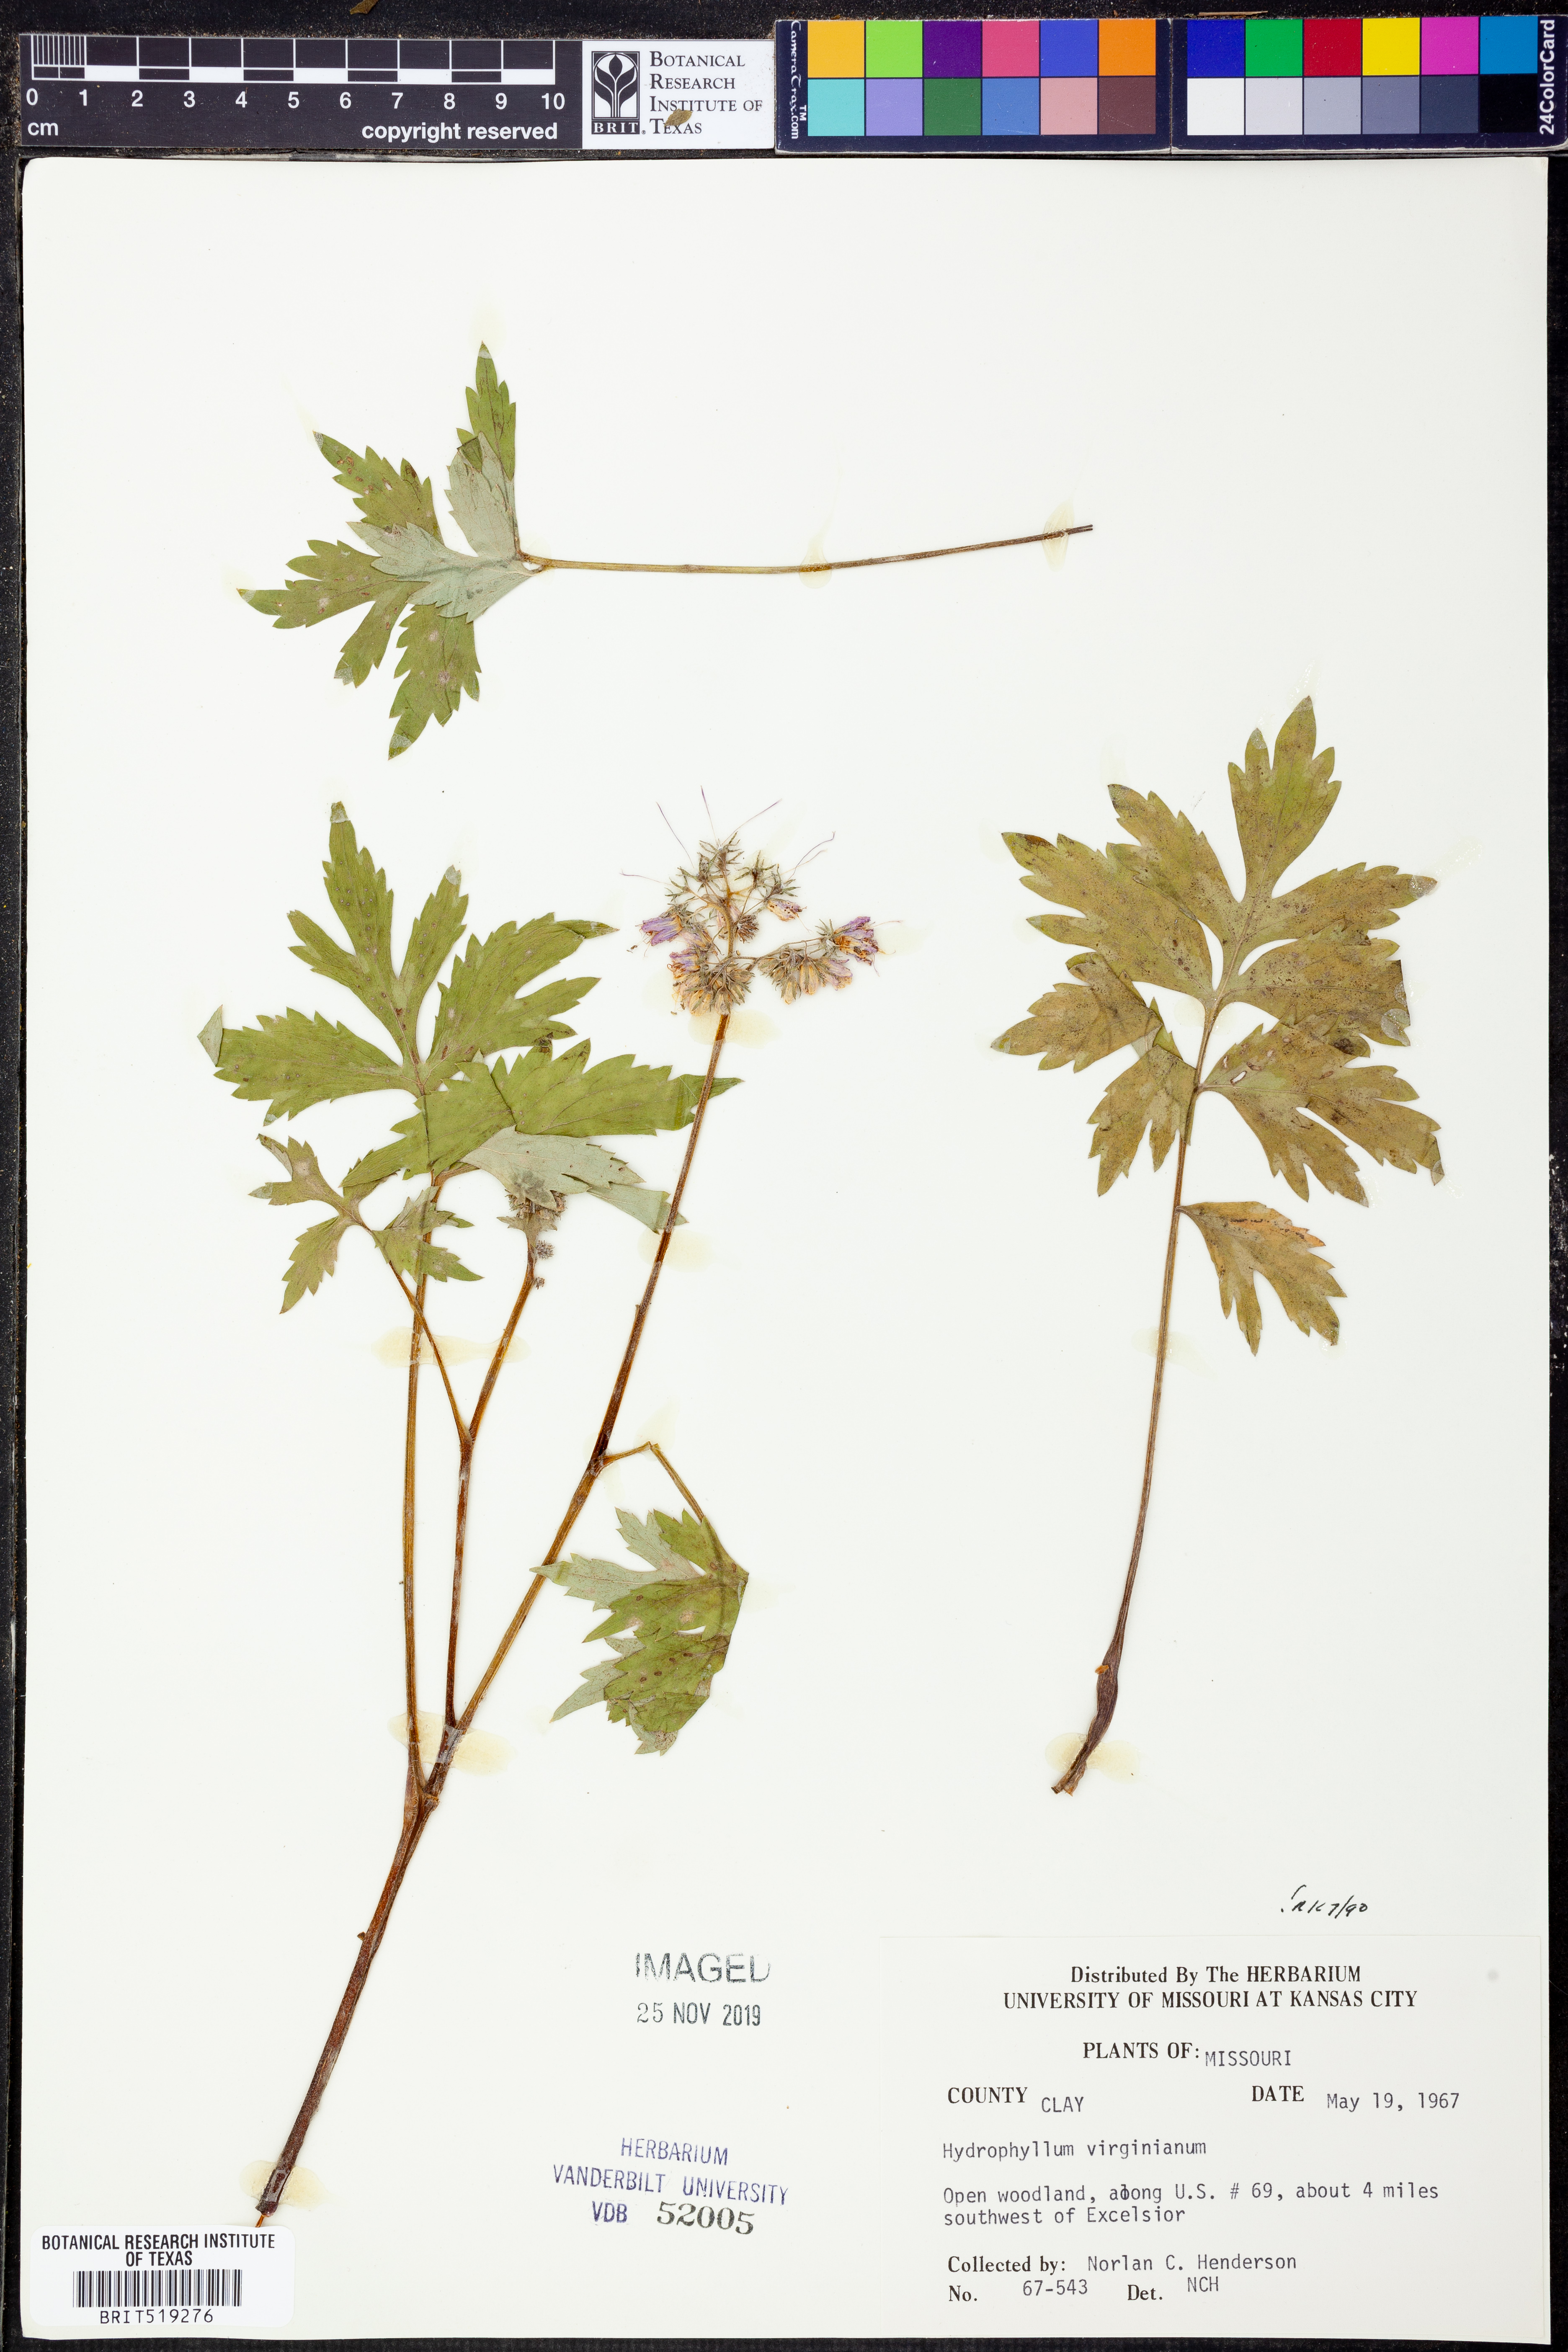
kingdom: Plantae
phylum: Tracheophyta
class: Magnoliopsida
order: Boraginales
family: Hydrophyllaceae
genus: Hydrophyllum
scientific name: Hydrophyllum virginianum
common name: Virginia waterleaf
